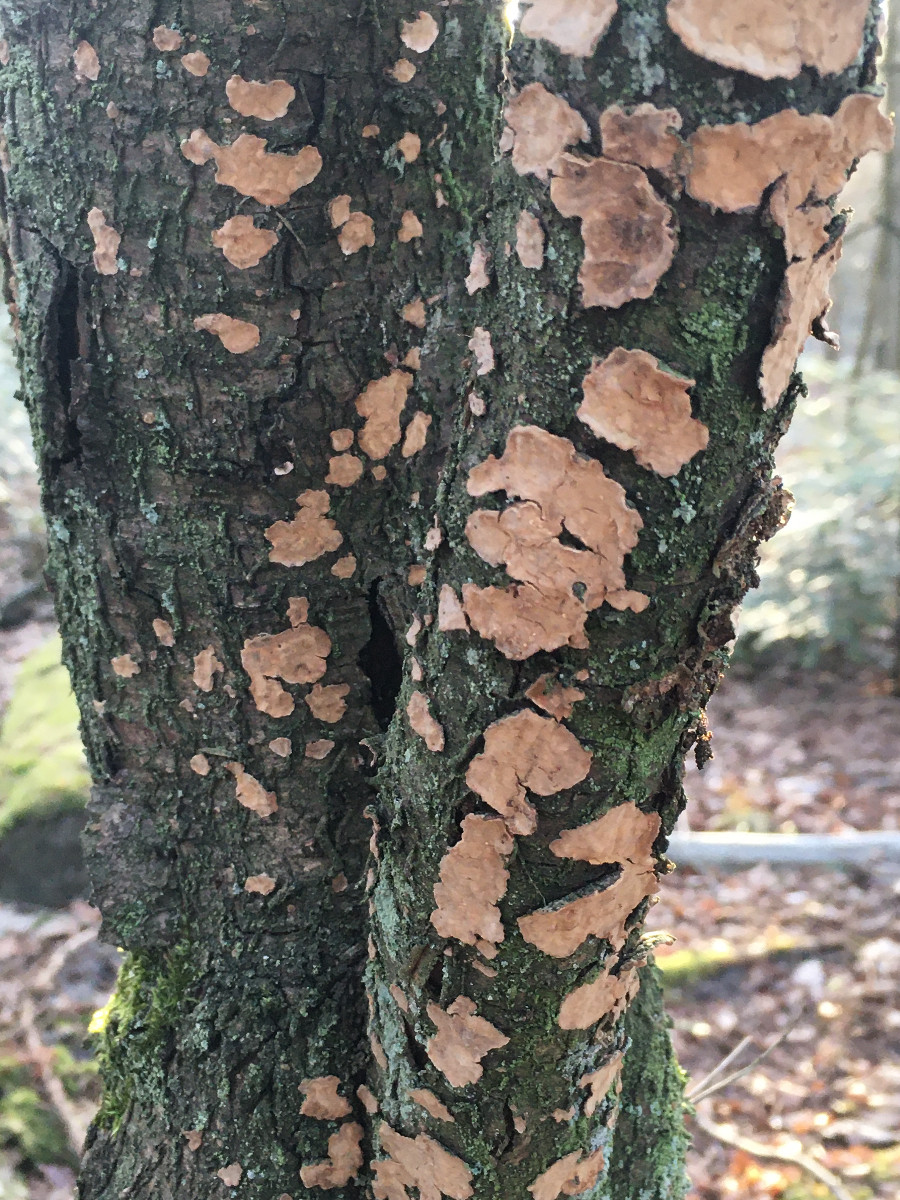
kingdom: Fungi
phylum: Basidiomycota
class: Agaricomycetes
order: Russulales
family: Stereaceae
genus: Stereum
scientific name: Stereum rugosum
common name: rynket lædersvamp
